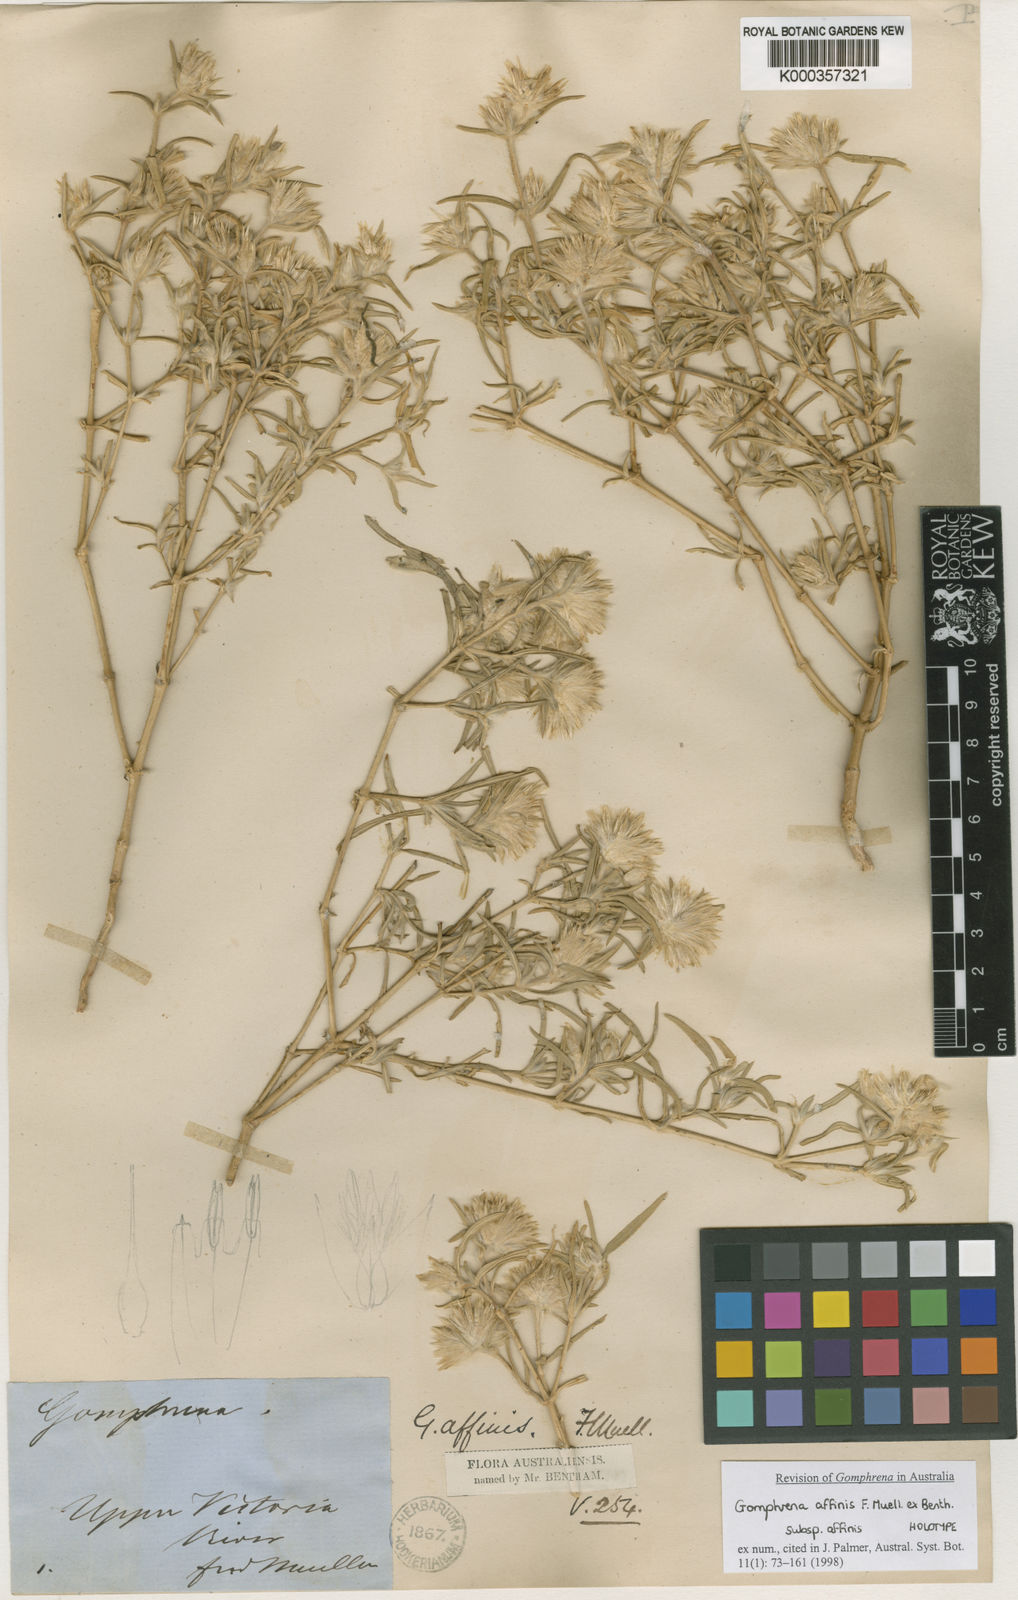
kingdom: Plantae
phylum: Tracheophyta
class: Magnoliopsida
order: Caryophyllales
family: Amaranthaceae
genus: Gomphrena
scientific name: Gomphrena affinis
